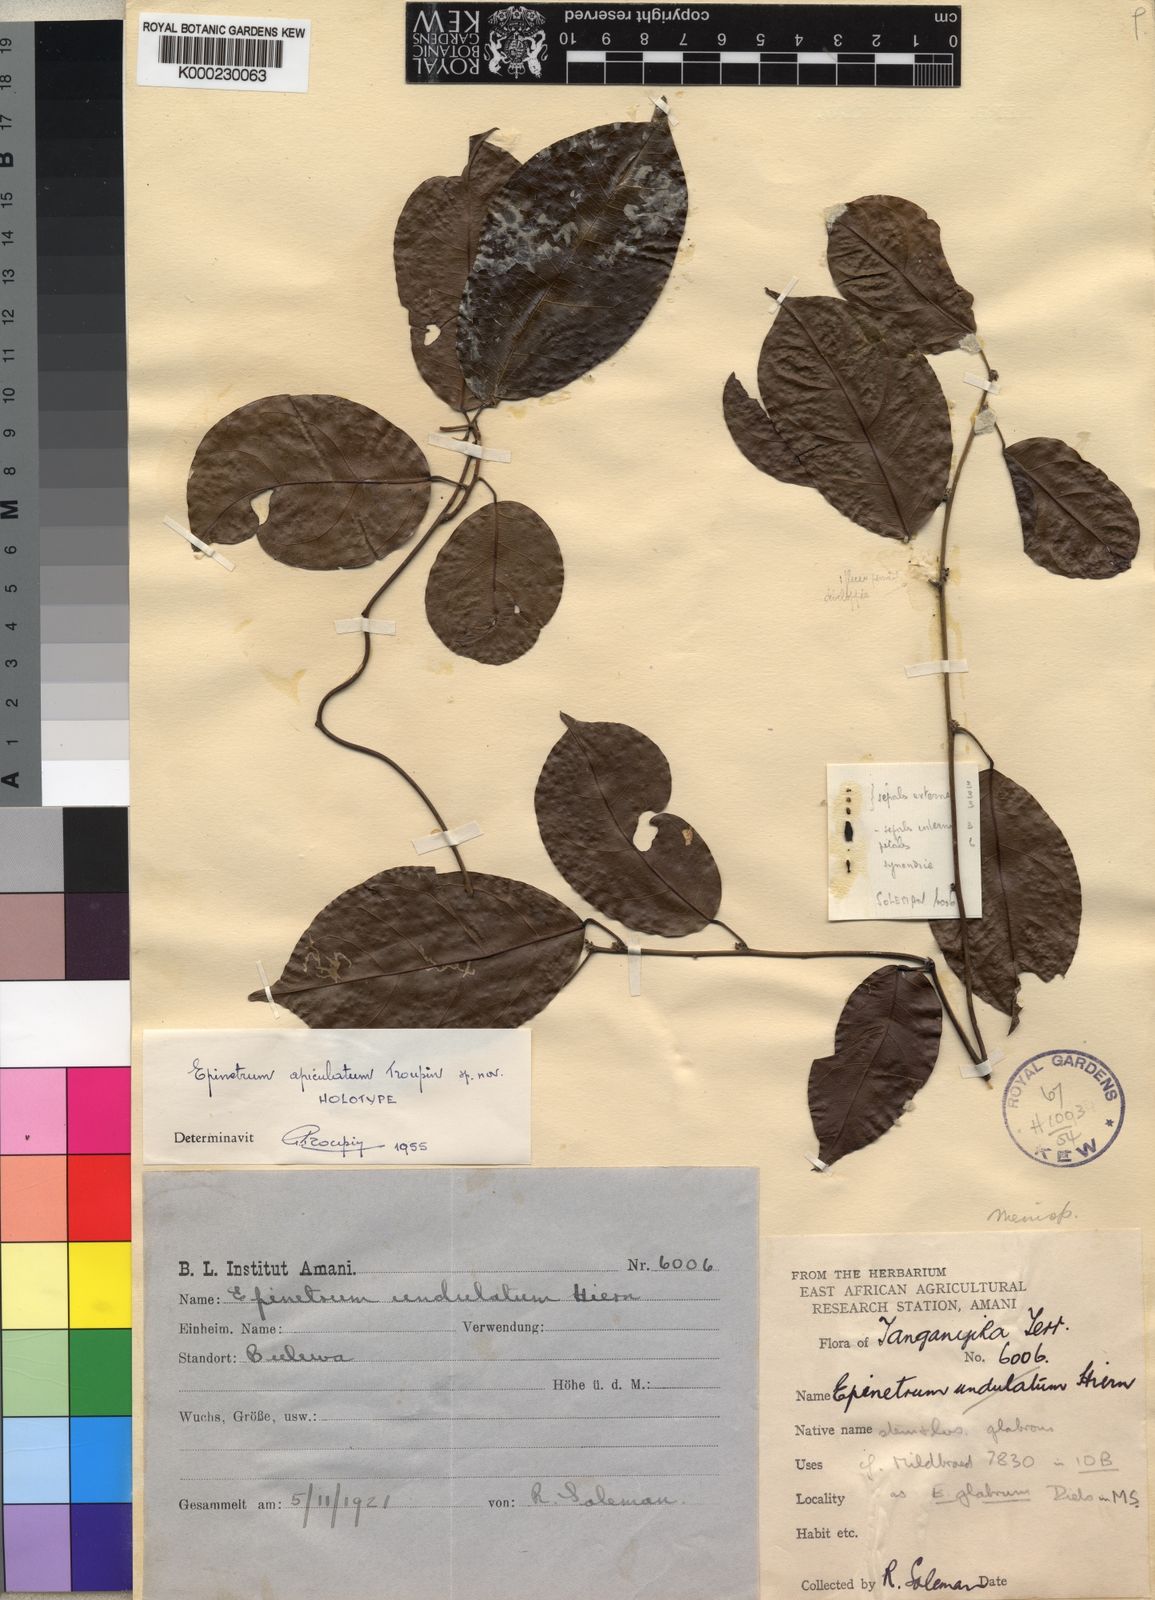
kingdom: Plantae
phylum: Tracheophyta
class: Magnoliopsida
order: Ranunculales
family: Menispermaceae
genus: Albertisia
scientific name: Albertisia apiculata
